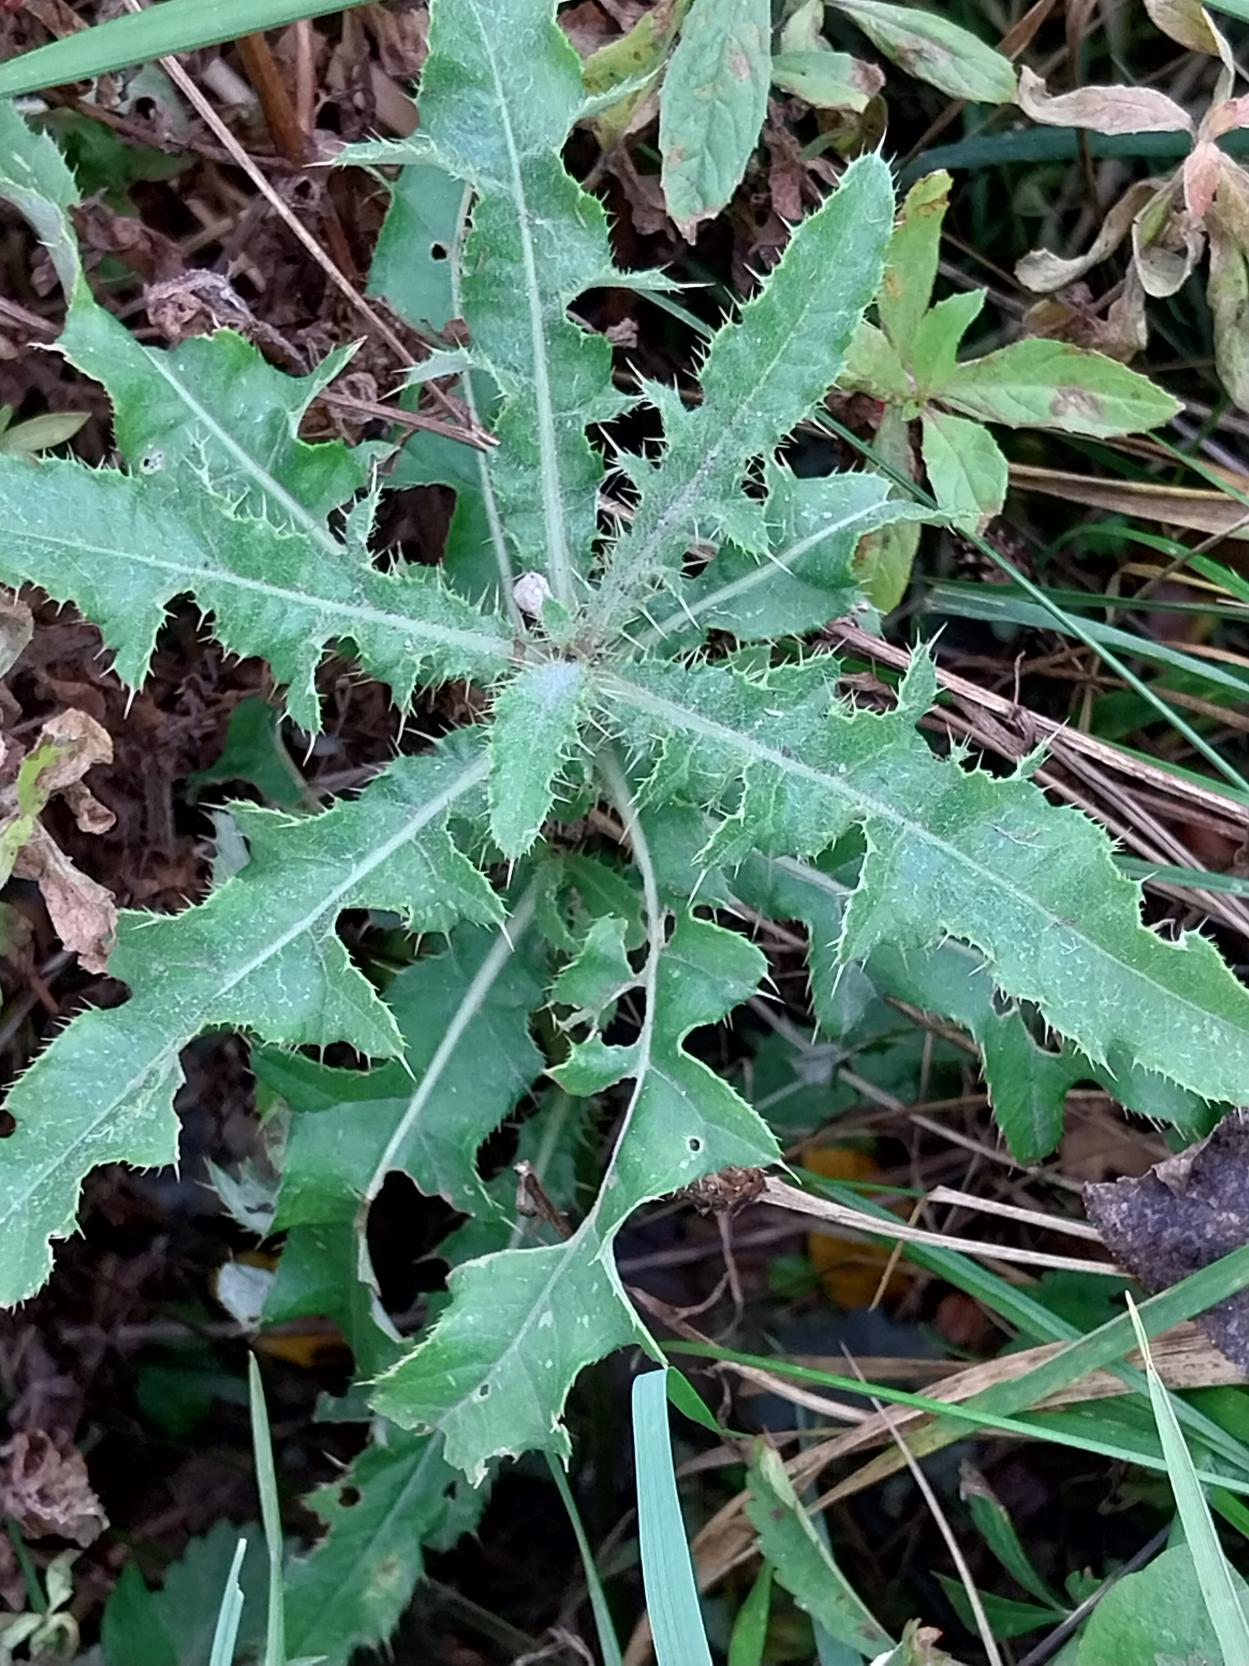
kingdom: Plantae
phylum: Tracheophyta
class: Magnoliopsida
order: Asterales
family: Asteraceae
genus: Cirsium
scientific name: Cirsium arvense
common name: Ager-tidsel
